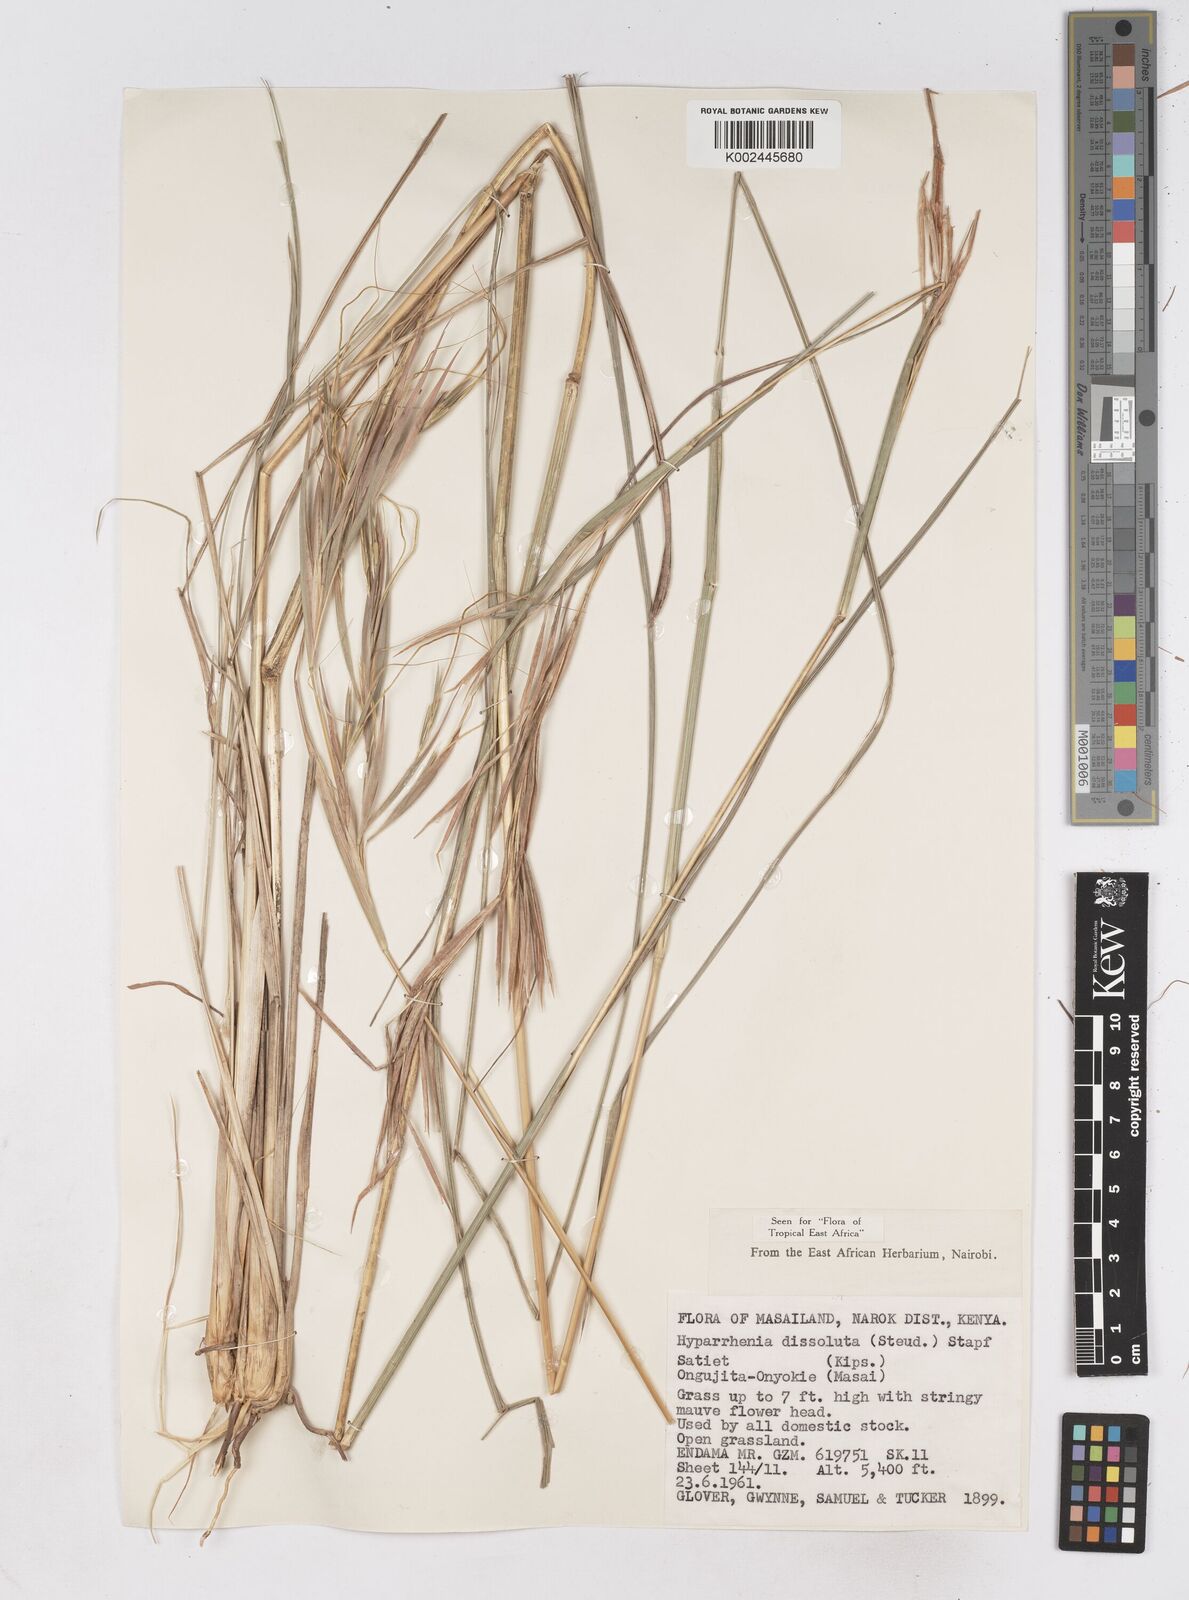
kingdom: Plantae
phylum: Tracheophyta
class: Liliopsida
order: Poales
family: Poaceae
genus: Hyperthelia
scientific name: Hyperthelia dissoluta
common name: Yellow thatching grass
